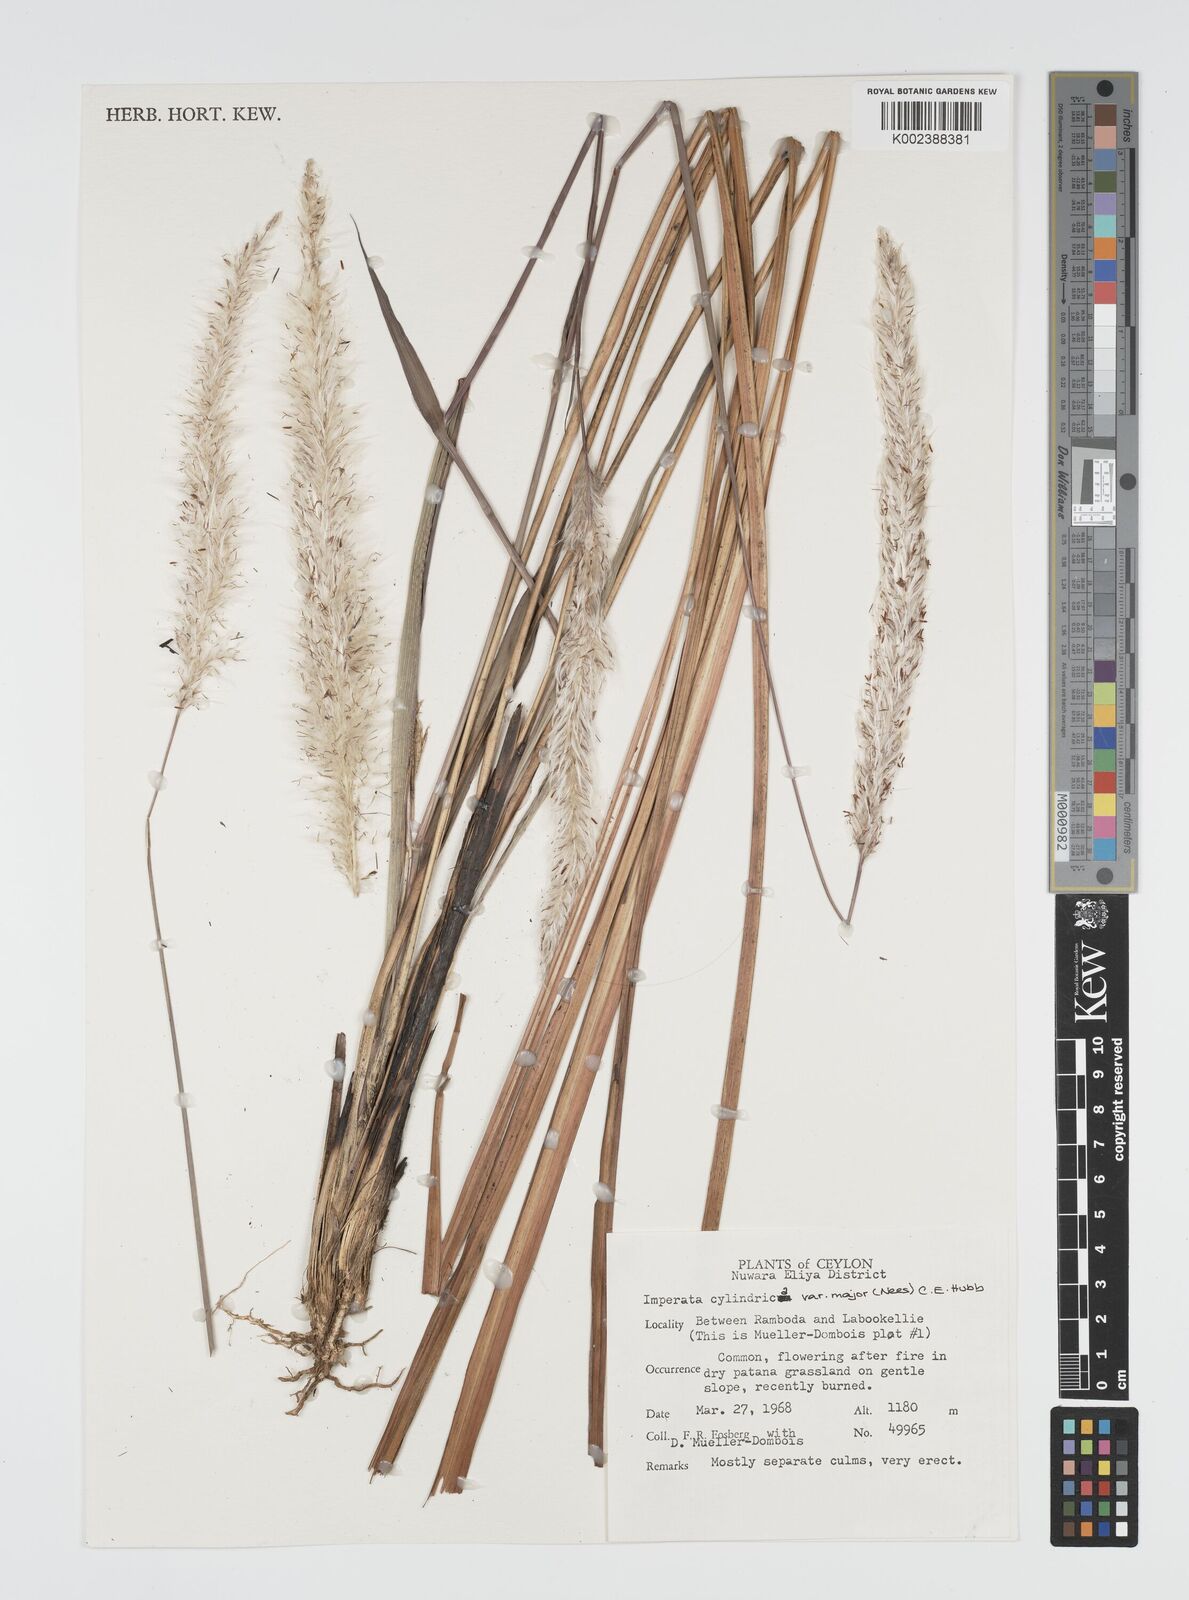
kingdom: Plantae
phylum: Tracheophyta
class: Liliopsida
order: Poales
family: Poaceae
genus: Imperata
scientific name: Imperata cylindrica
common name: Cogongrass
